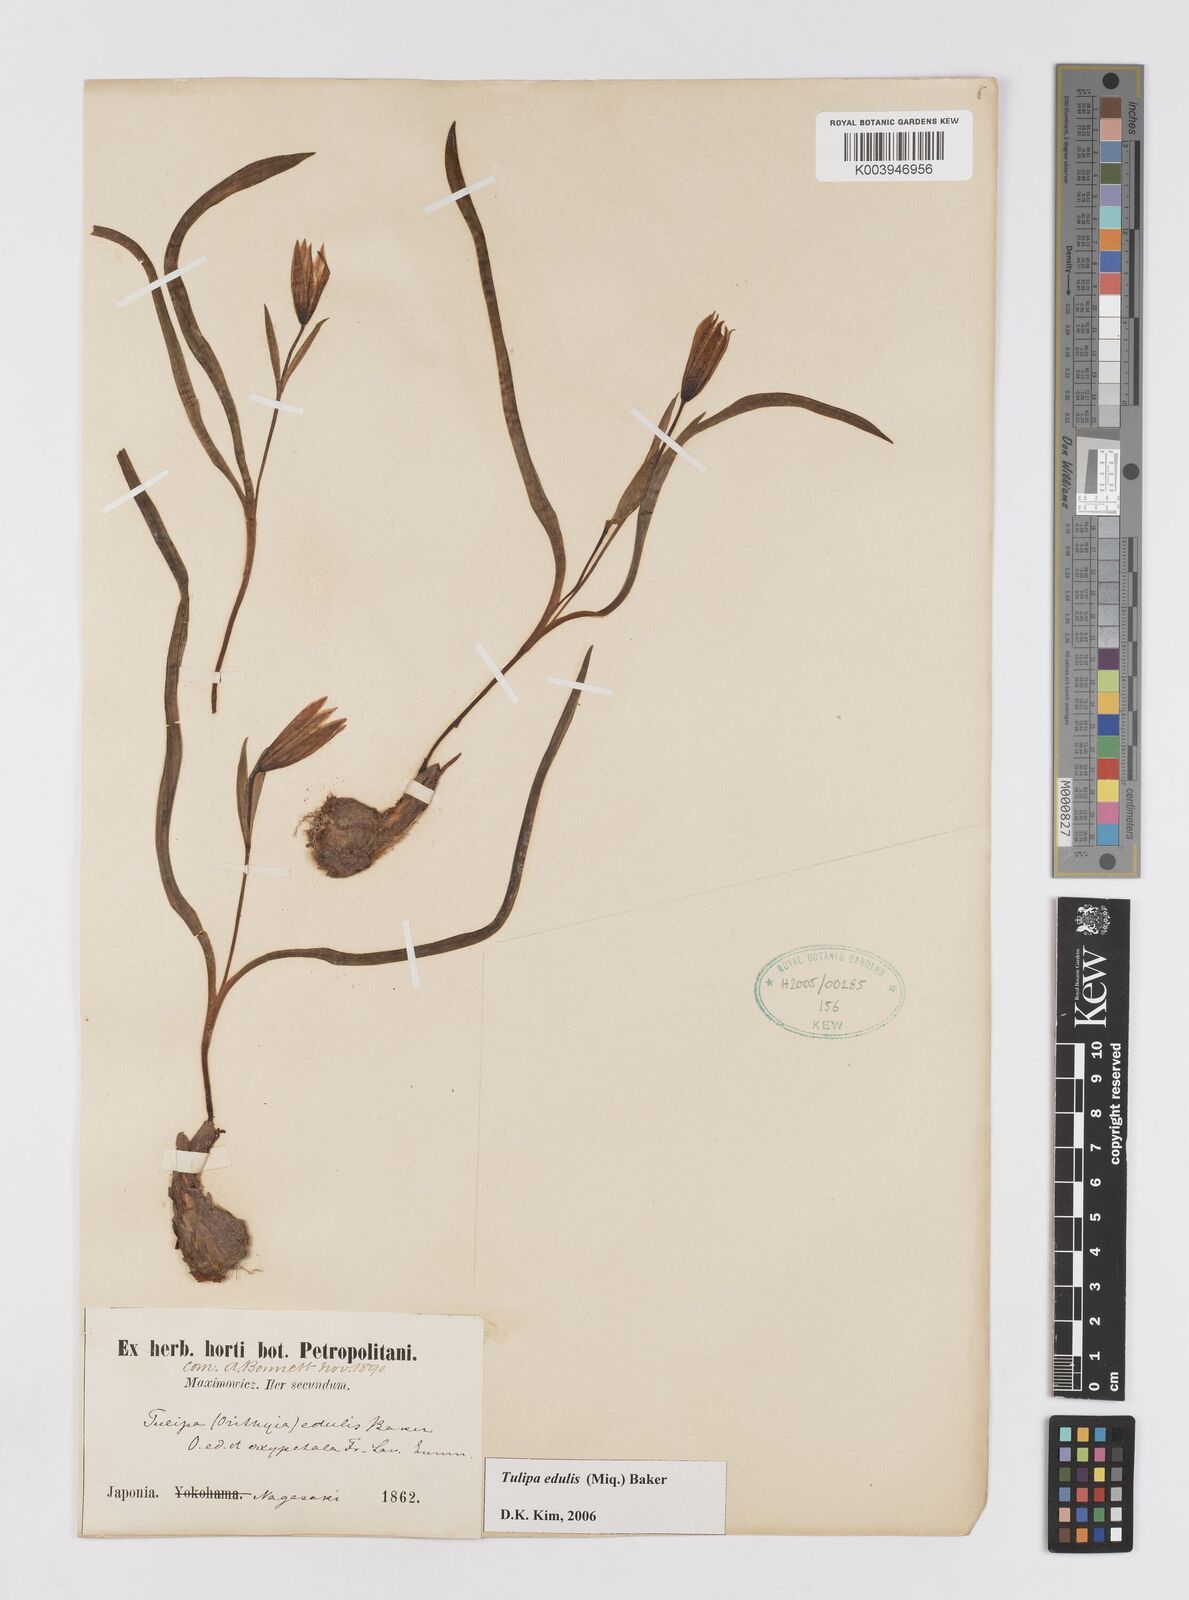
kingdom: Plantae
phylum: Tracheophyta
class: Liliopsida
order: Liliales
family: Liliaceae
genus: Amana
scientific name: Amana edulis
